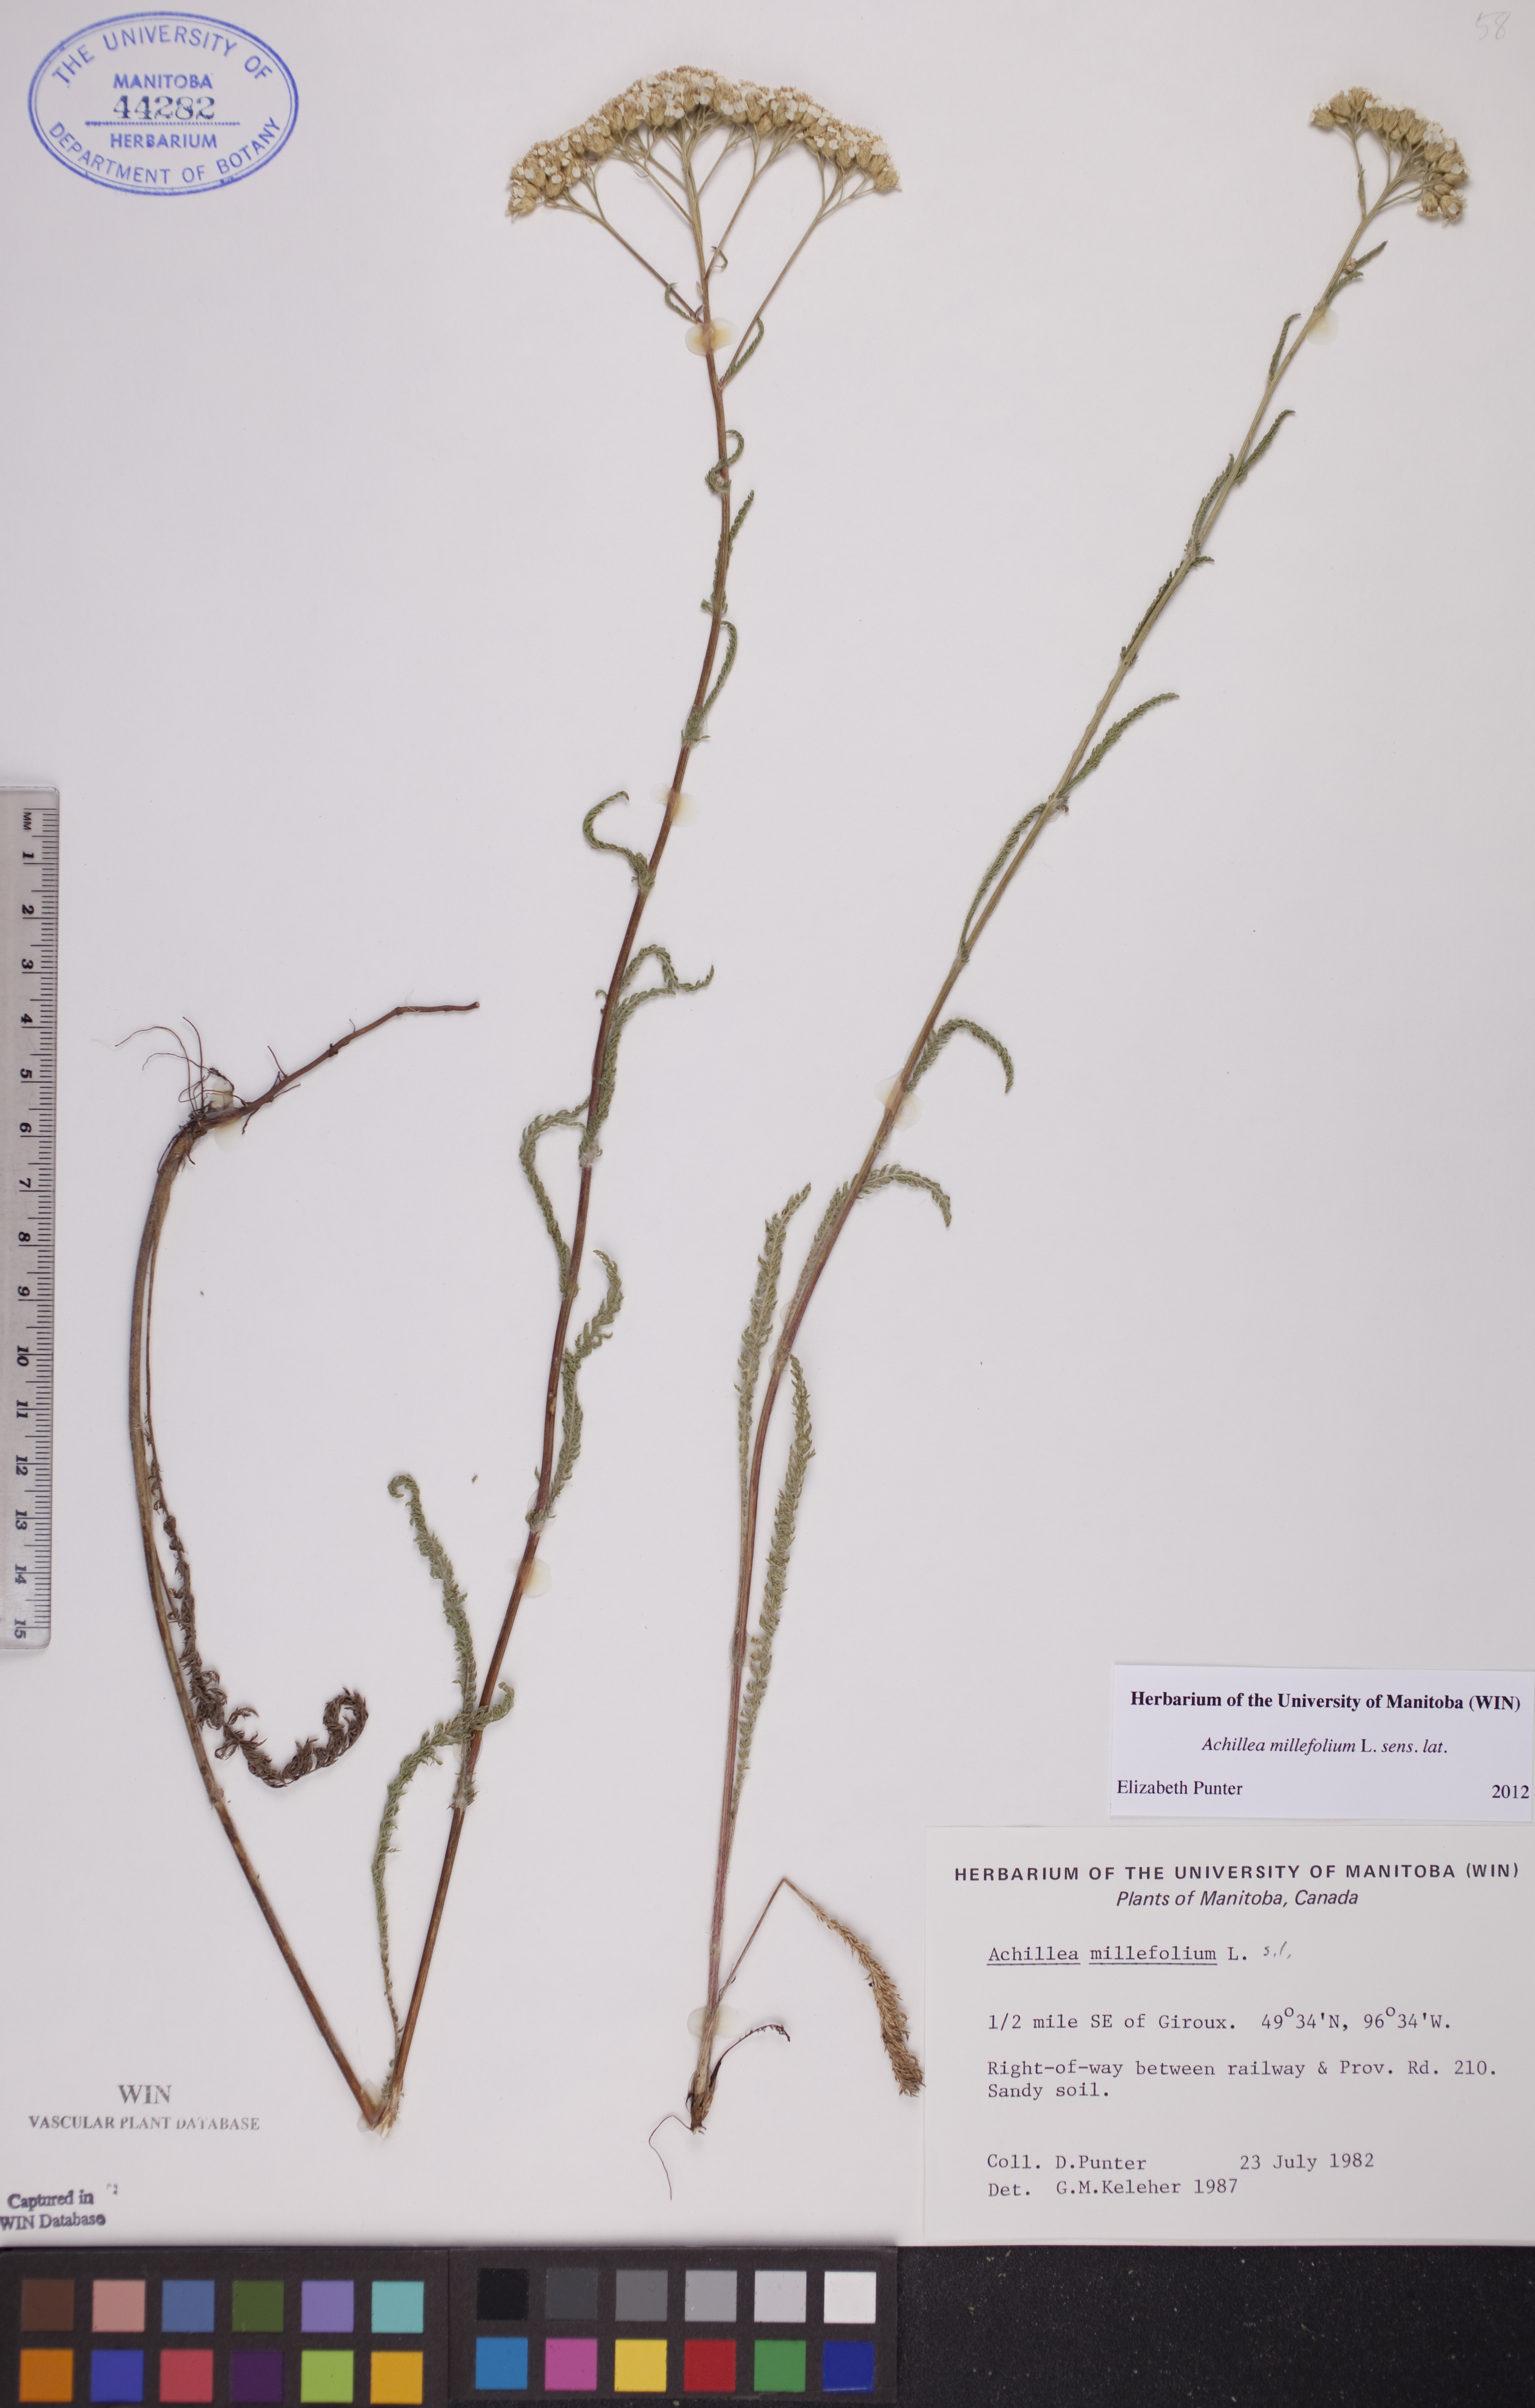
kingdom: Plantae
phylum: Tracheophyta
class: Magnoliopsida
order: Asterales
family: Asteraceae
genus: Achillea
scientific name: Achillea millefolium
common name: Yarrow
